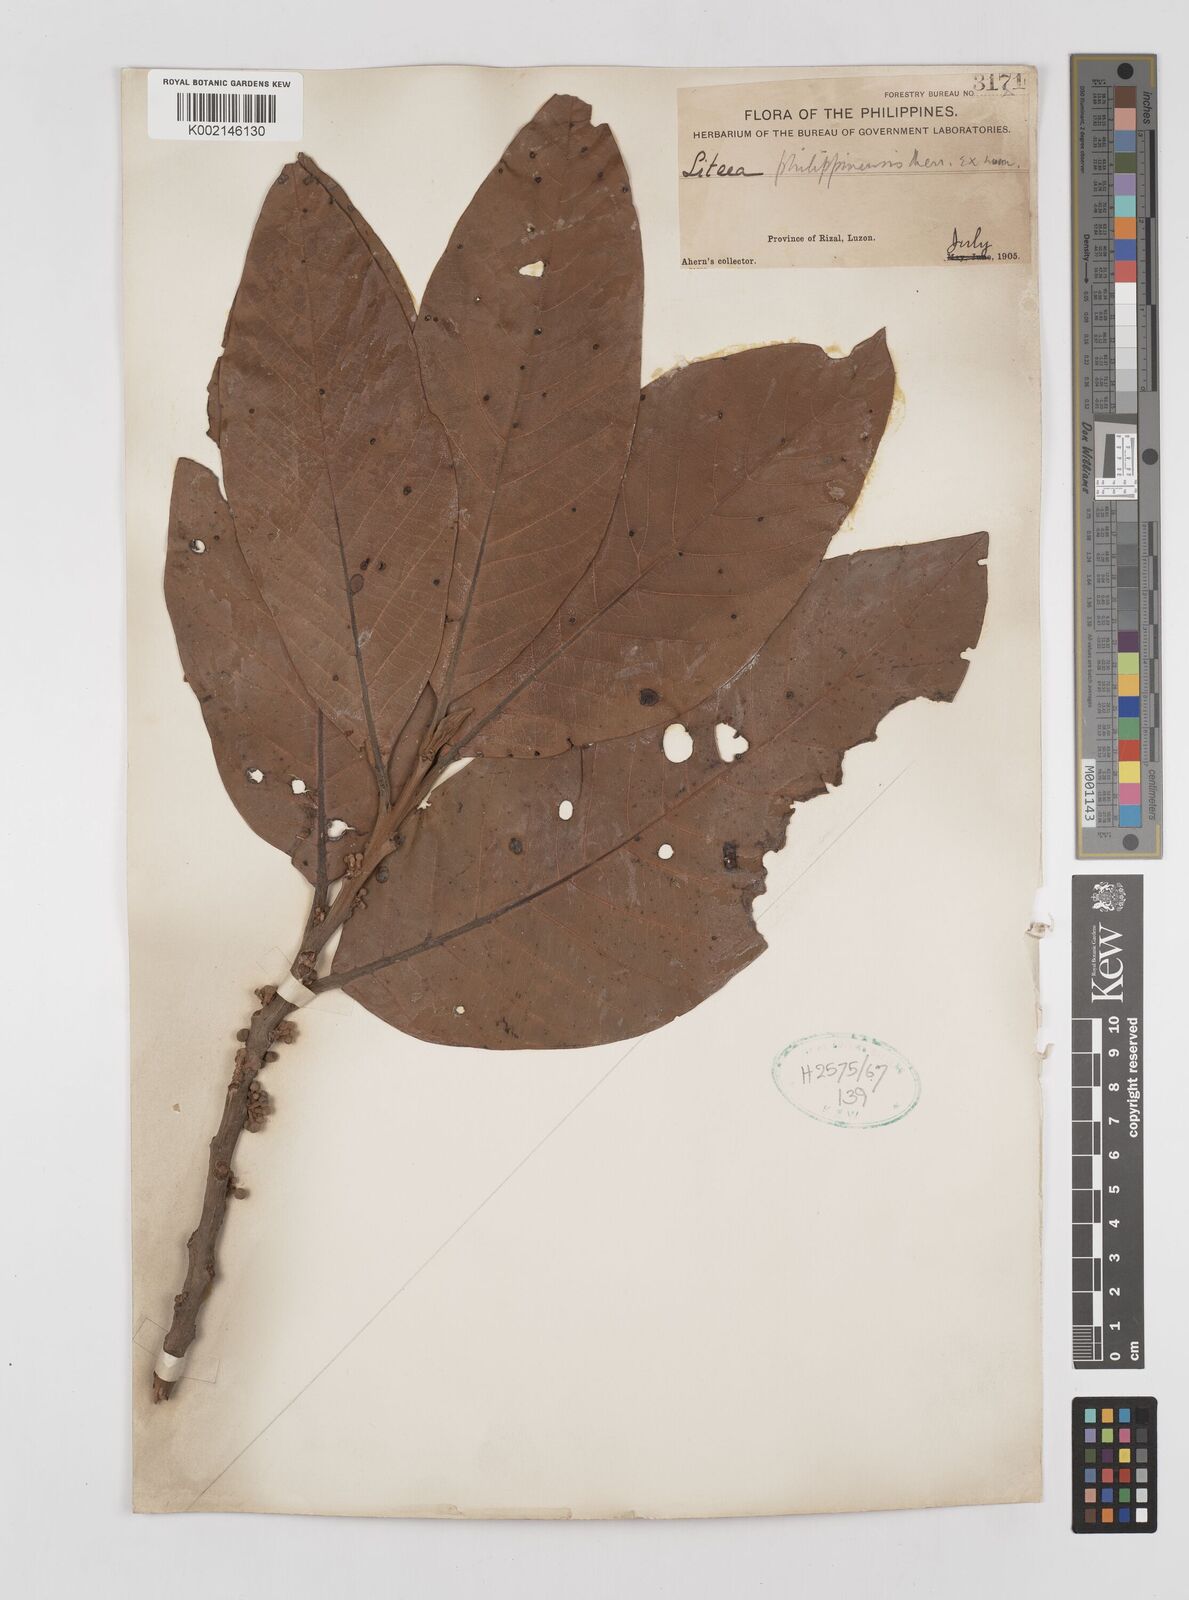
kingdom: Plantae
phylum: Tracheophyta
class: Magnoliopsida
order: Laurales
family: Lauraceae
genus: Litsea
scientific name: Litsea philippinensis
